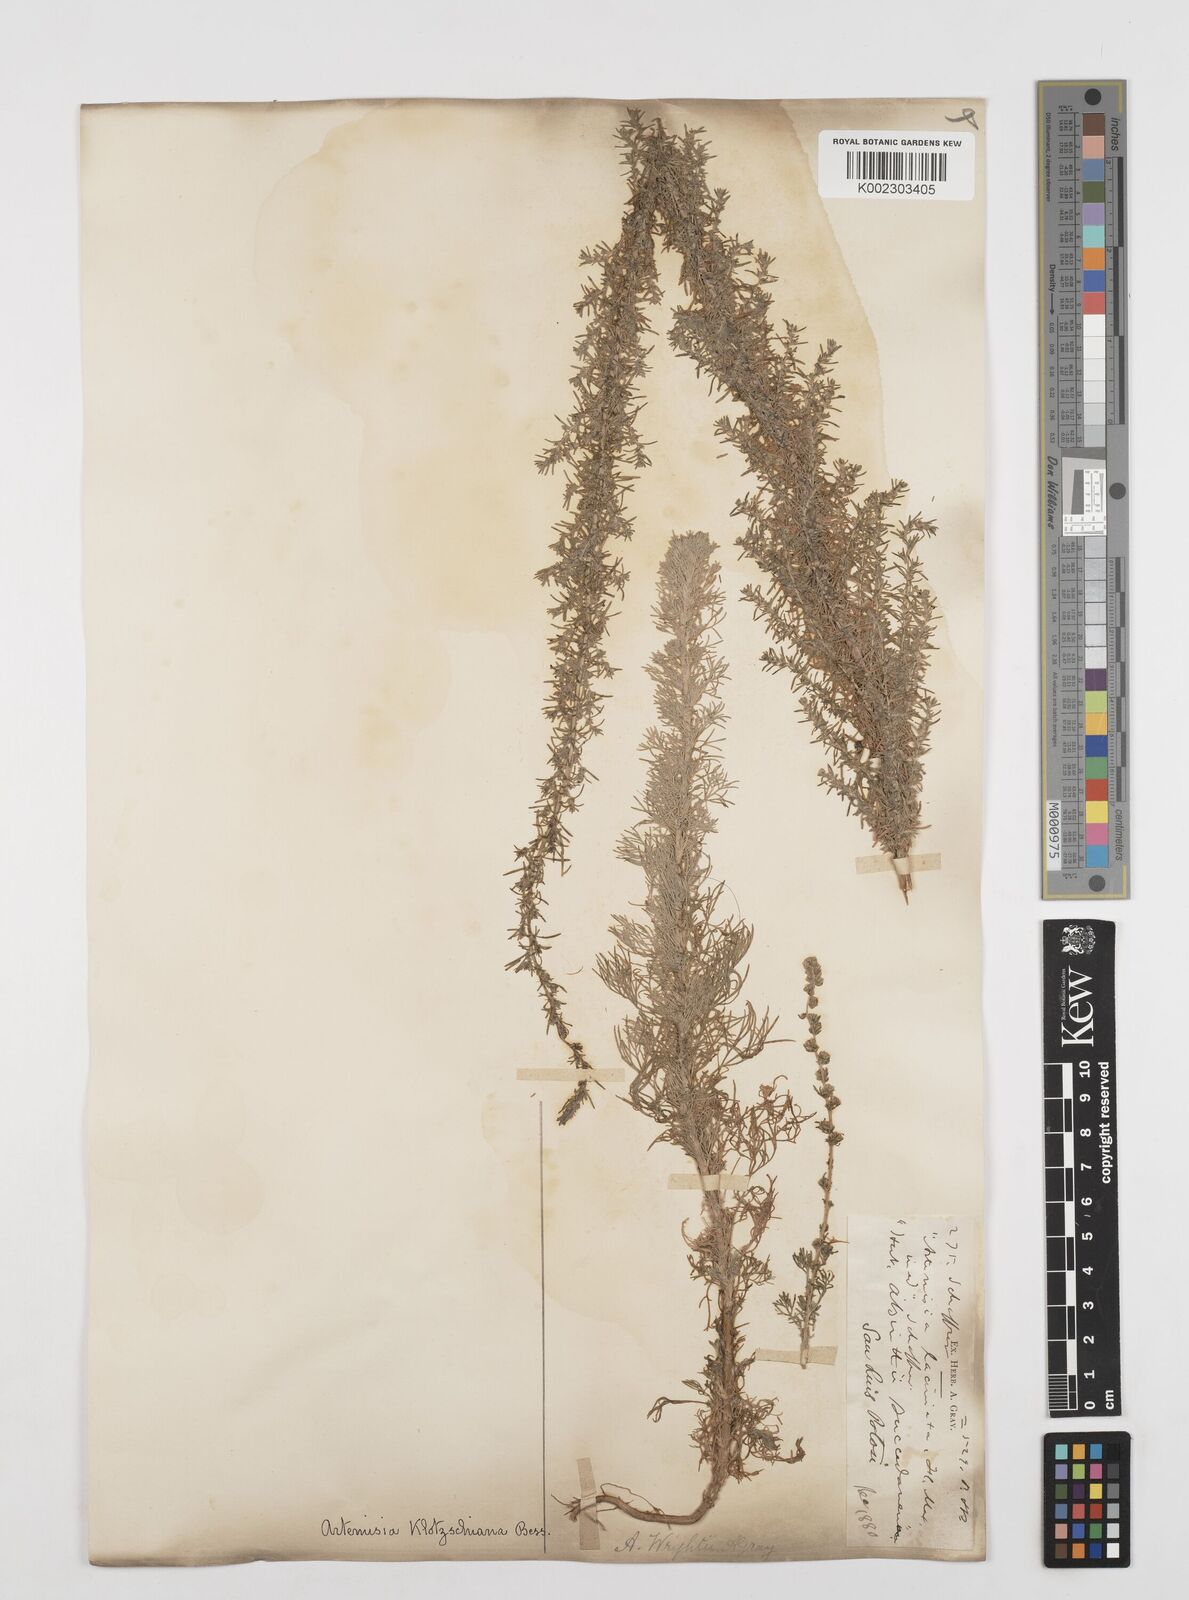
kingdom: Plantae
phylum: Tracheophyta
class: Magnoliopsida
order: Asterales
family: Asteraceae
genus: Artemisia
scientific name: Artemisia klotzschiana
